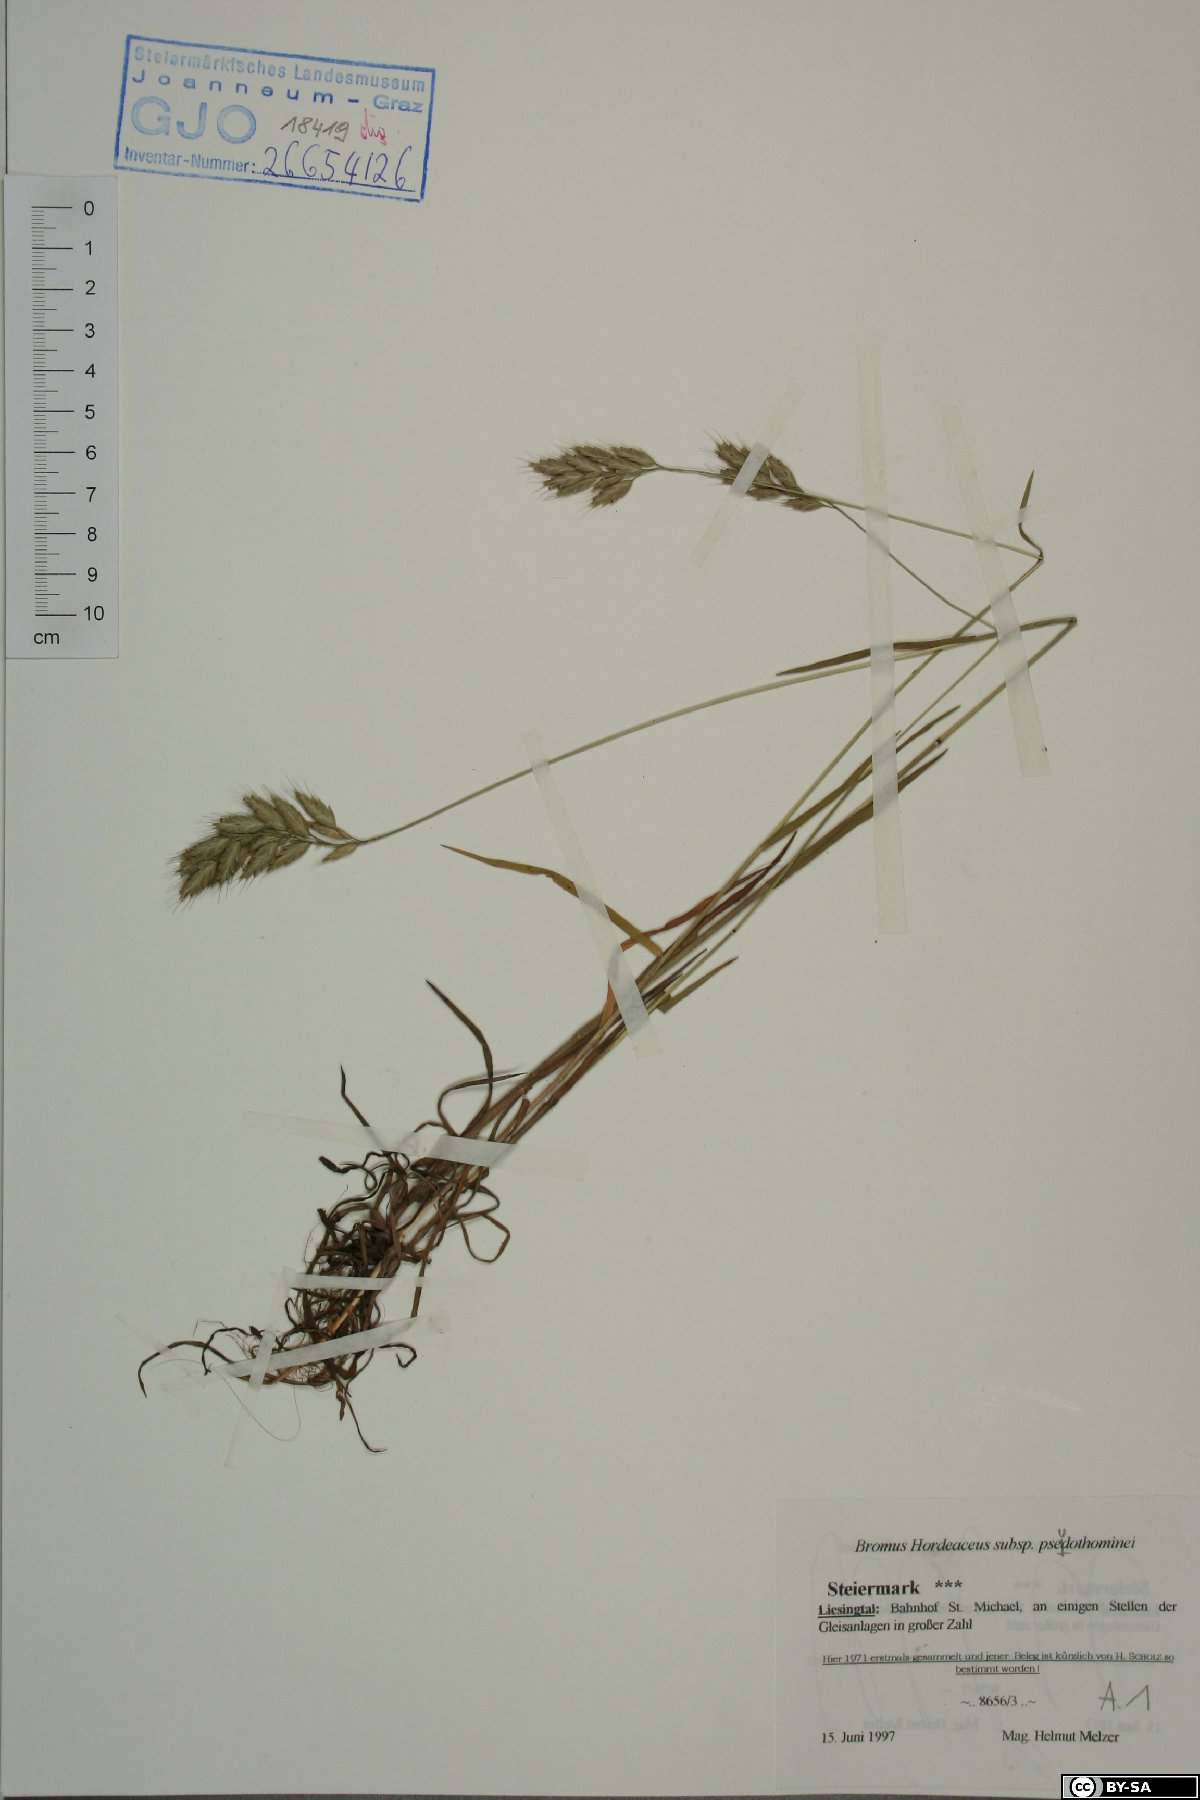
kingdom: Plantae
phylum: Tracheophyta
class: Liliopsida
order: Poales
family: Poaceae
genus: Bromus
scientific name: Bromus ferronii
